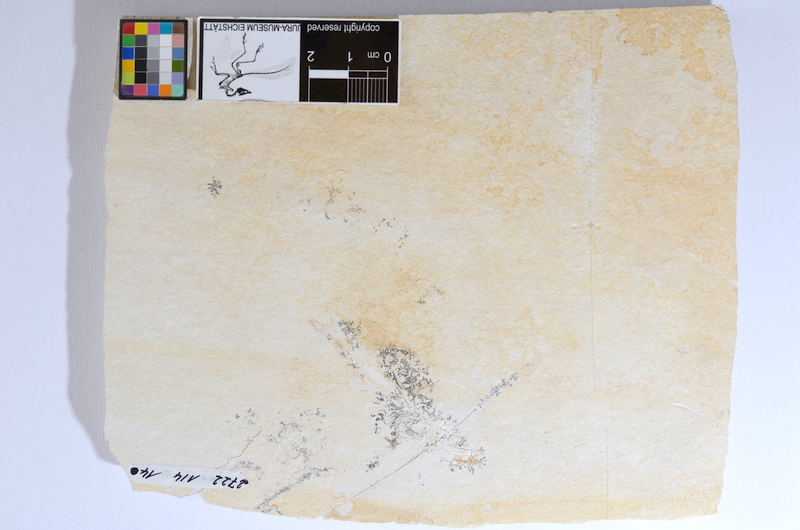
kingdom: Animalia
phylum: Chordata
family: Ascalaboidae
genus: Tharsis
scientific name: Tharsis dubius
